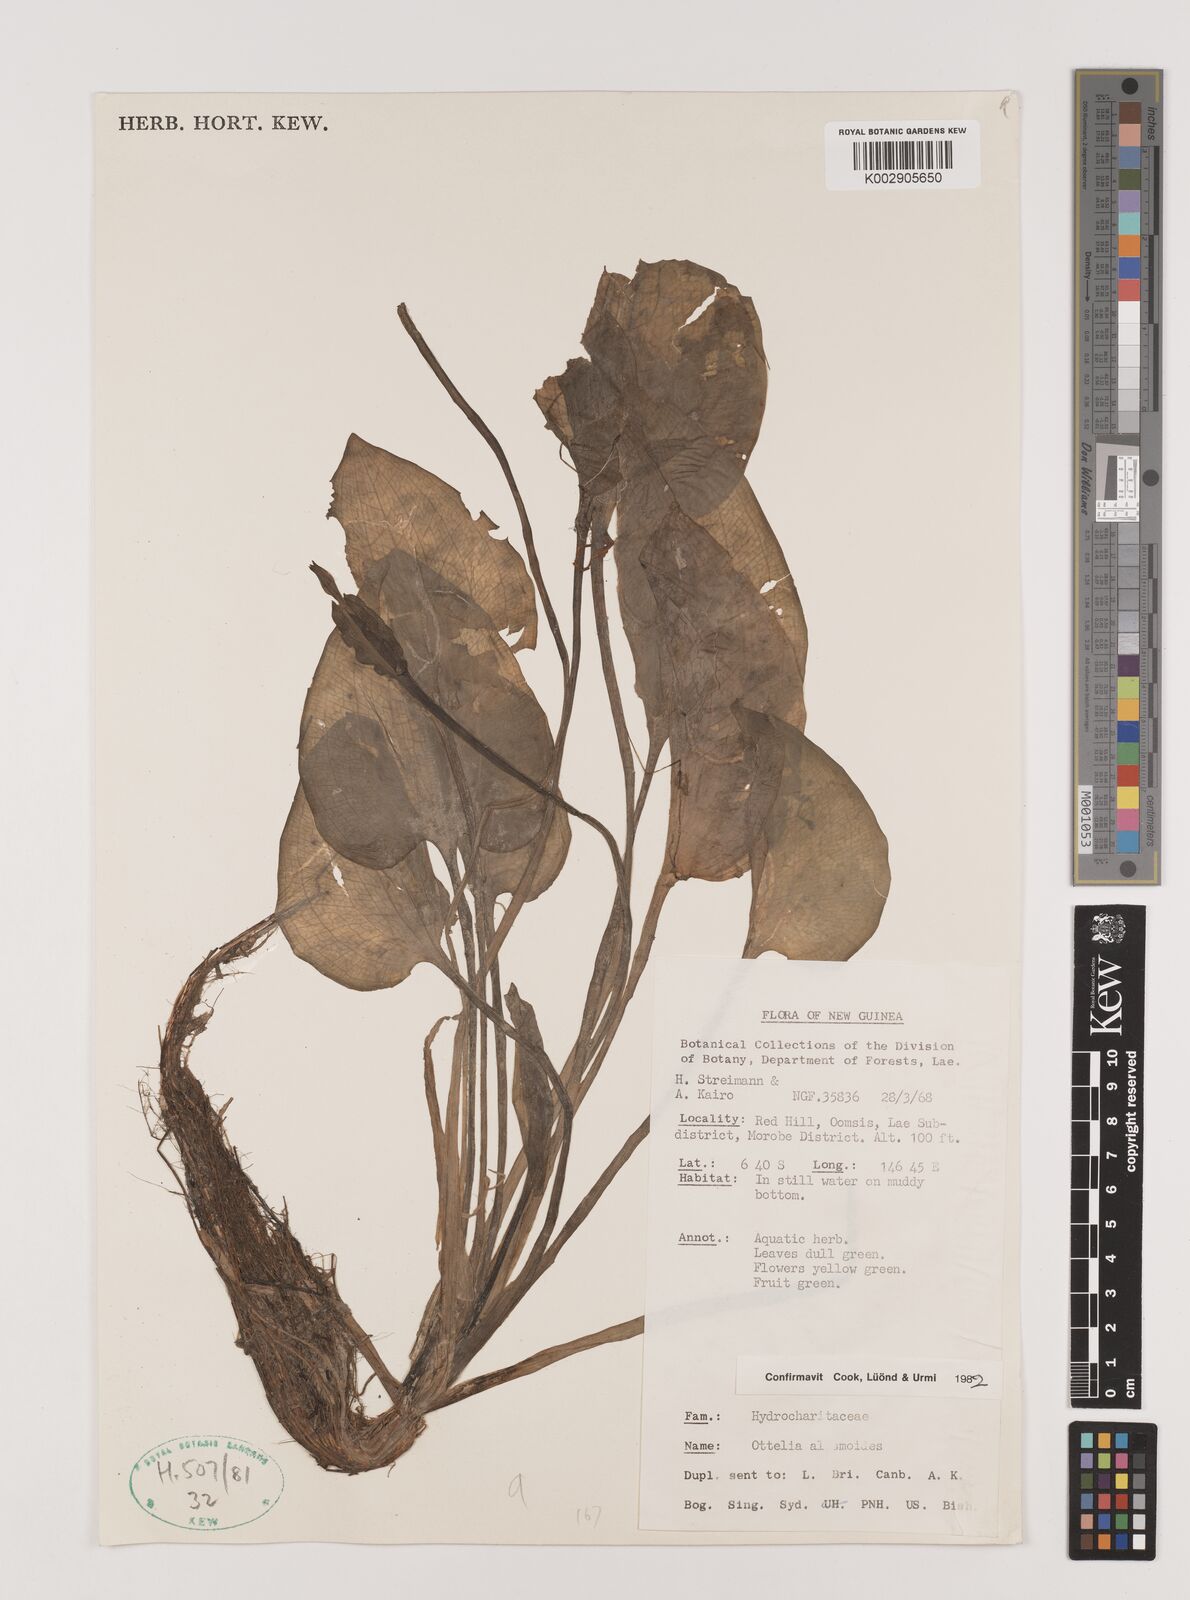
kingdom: Plantae
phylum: Tracheophyta
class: Liliopsida
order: Alismatales
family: Hydrocharitaceae
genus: Ottelia
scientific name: Ottelia alismoides
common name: Duck-lettuce
